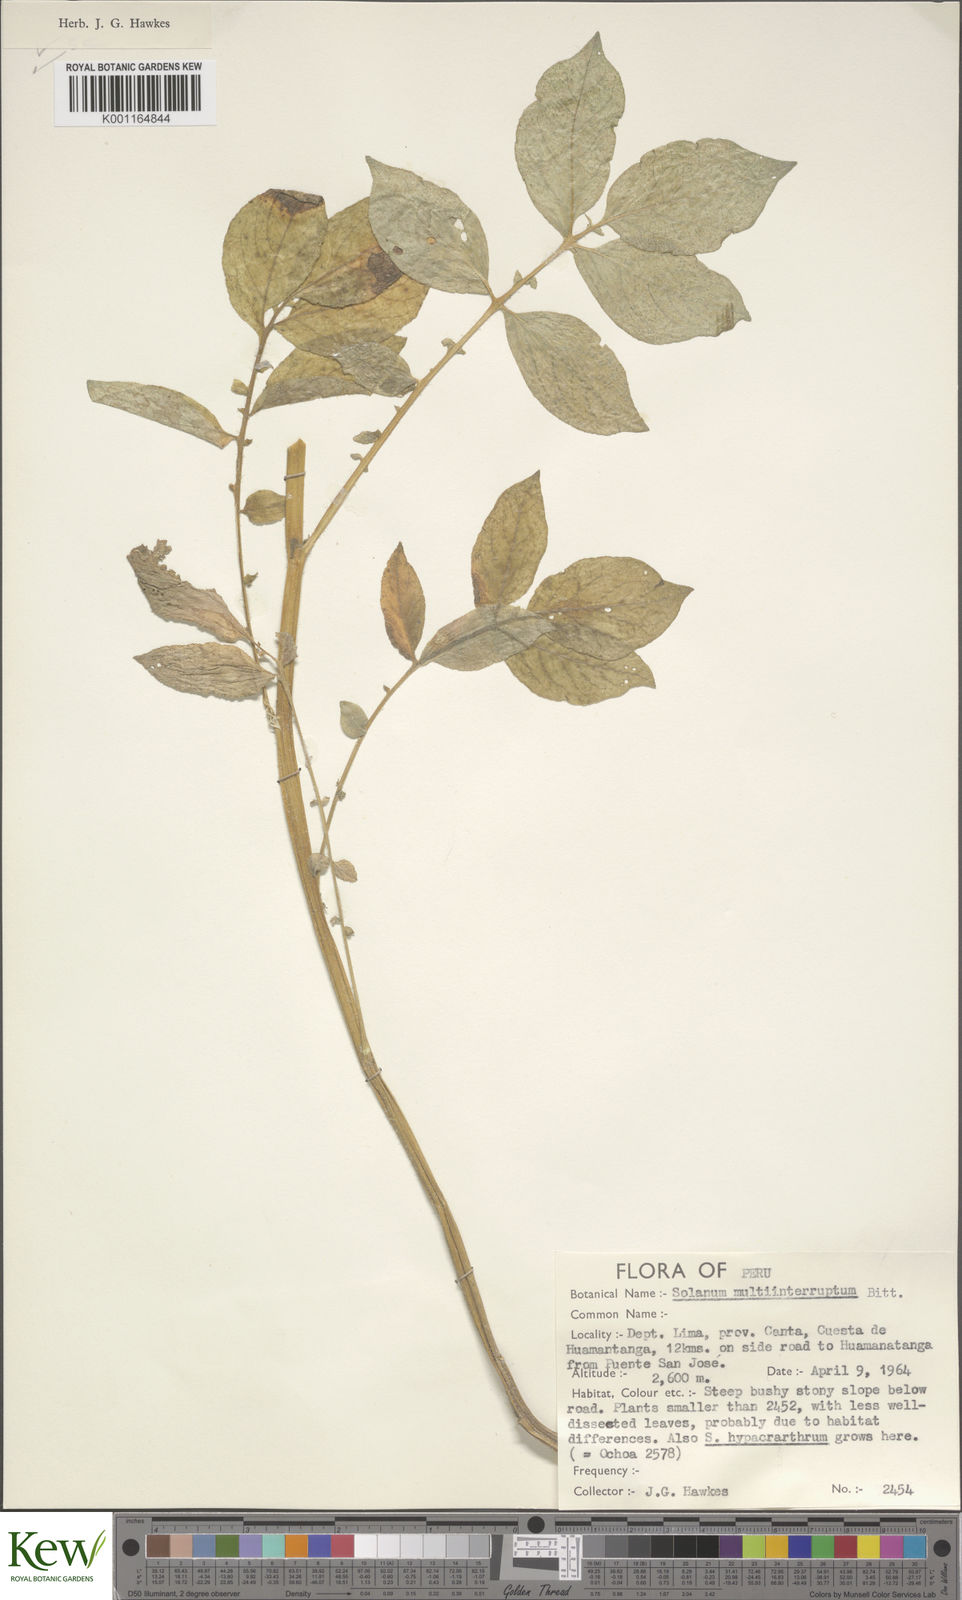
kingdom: Plantae
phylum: Tracheophyta
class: Magnoliopsida
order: Solanales
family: Solanaceae
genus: Solanum
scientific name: Solanum multiinterruptum
